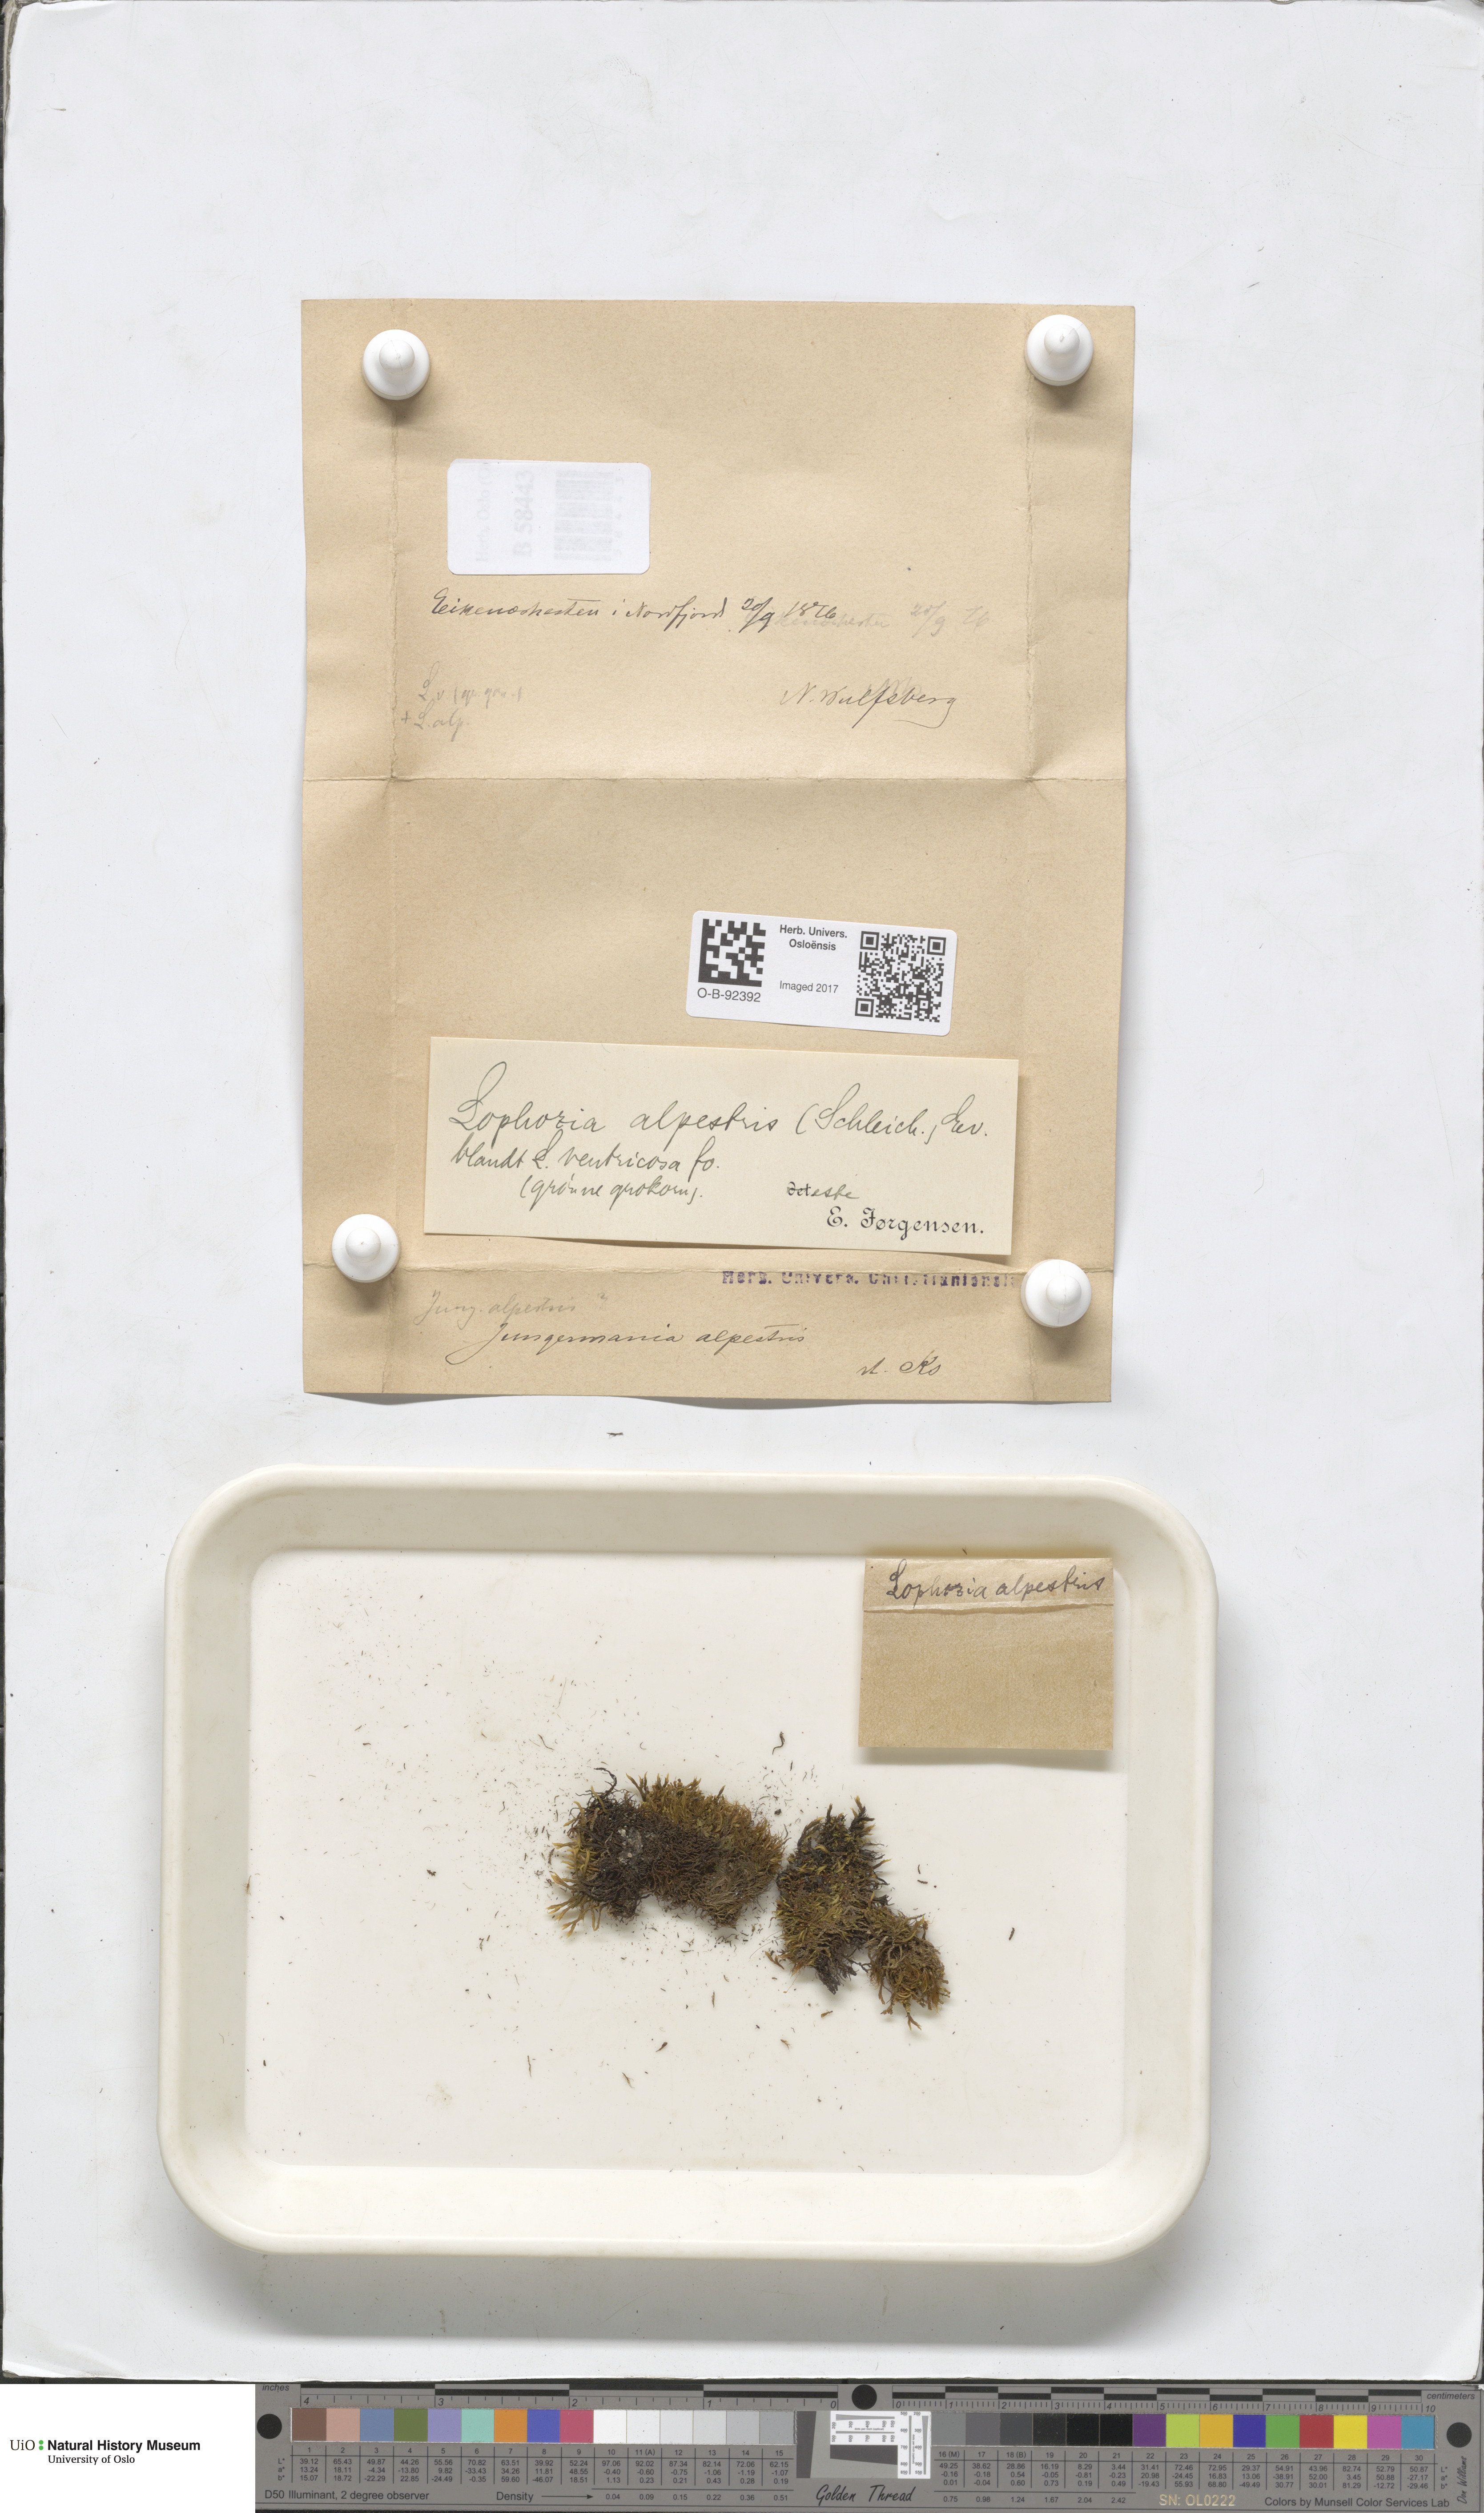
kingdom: Plantae
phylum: Marchantiophyta
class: Jungermanniopsida
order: Jungermanniales
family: Anastrophyllaceae
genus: Barbilophozia
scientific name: Barbilophozia sudetica
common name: Hill notchwort
